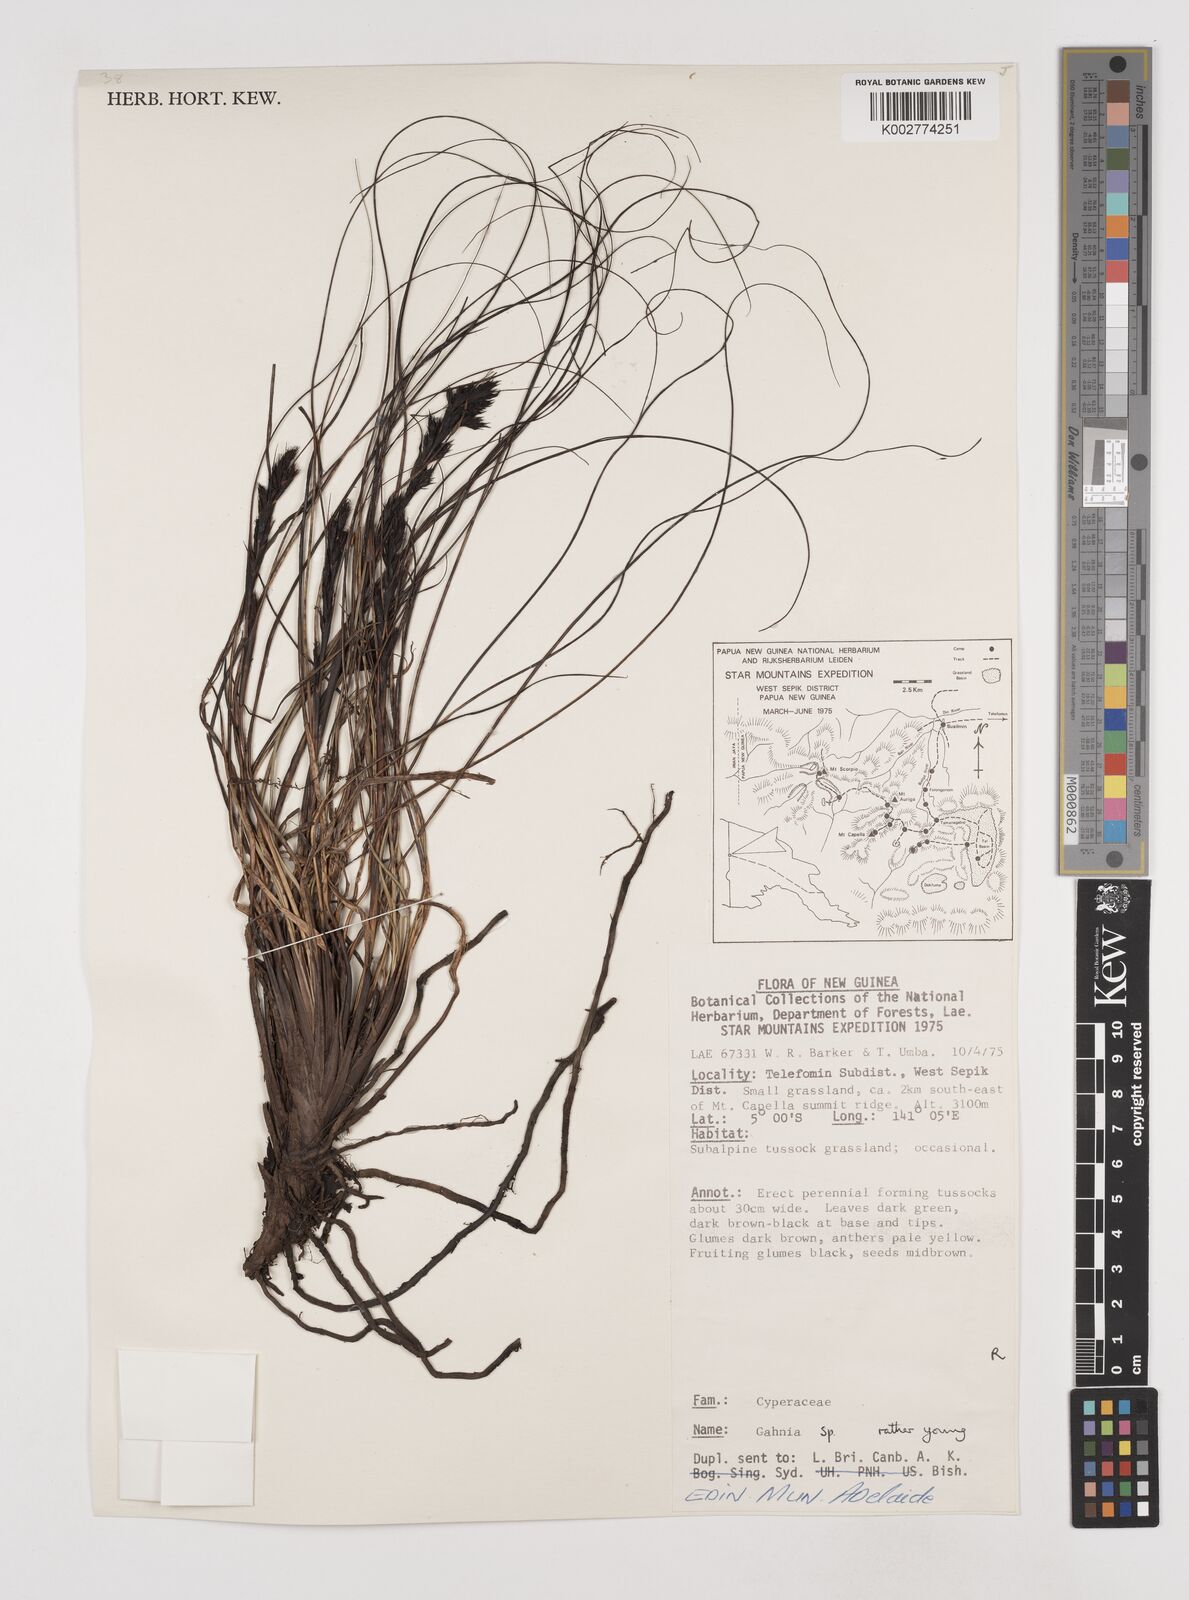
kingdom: Plantae
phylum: Tracheophyta
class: Liliopsida
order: Poales
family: Cyperaceae
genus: Gahnia
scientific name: Gahnia javanica
